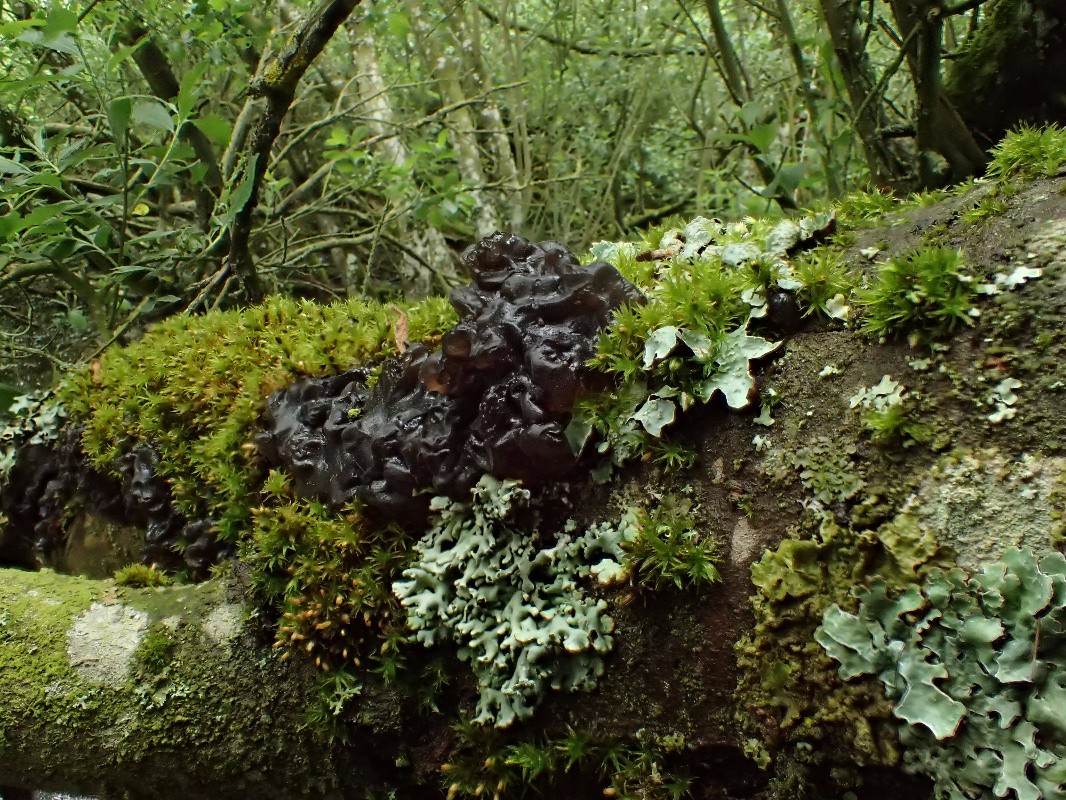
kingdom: Fungi
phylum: Basidiomycota
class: Agaricomycetes
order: Auriculariales
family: Auriculariaceae
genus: Exidia
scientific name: Exidia nigricans
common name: almindelig bævretop
